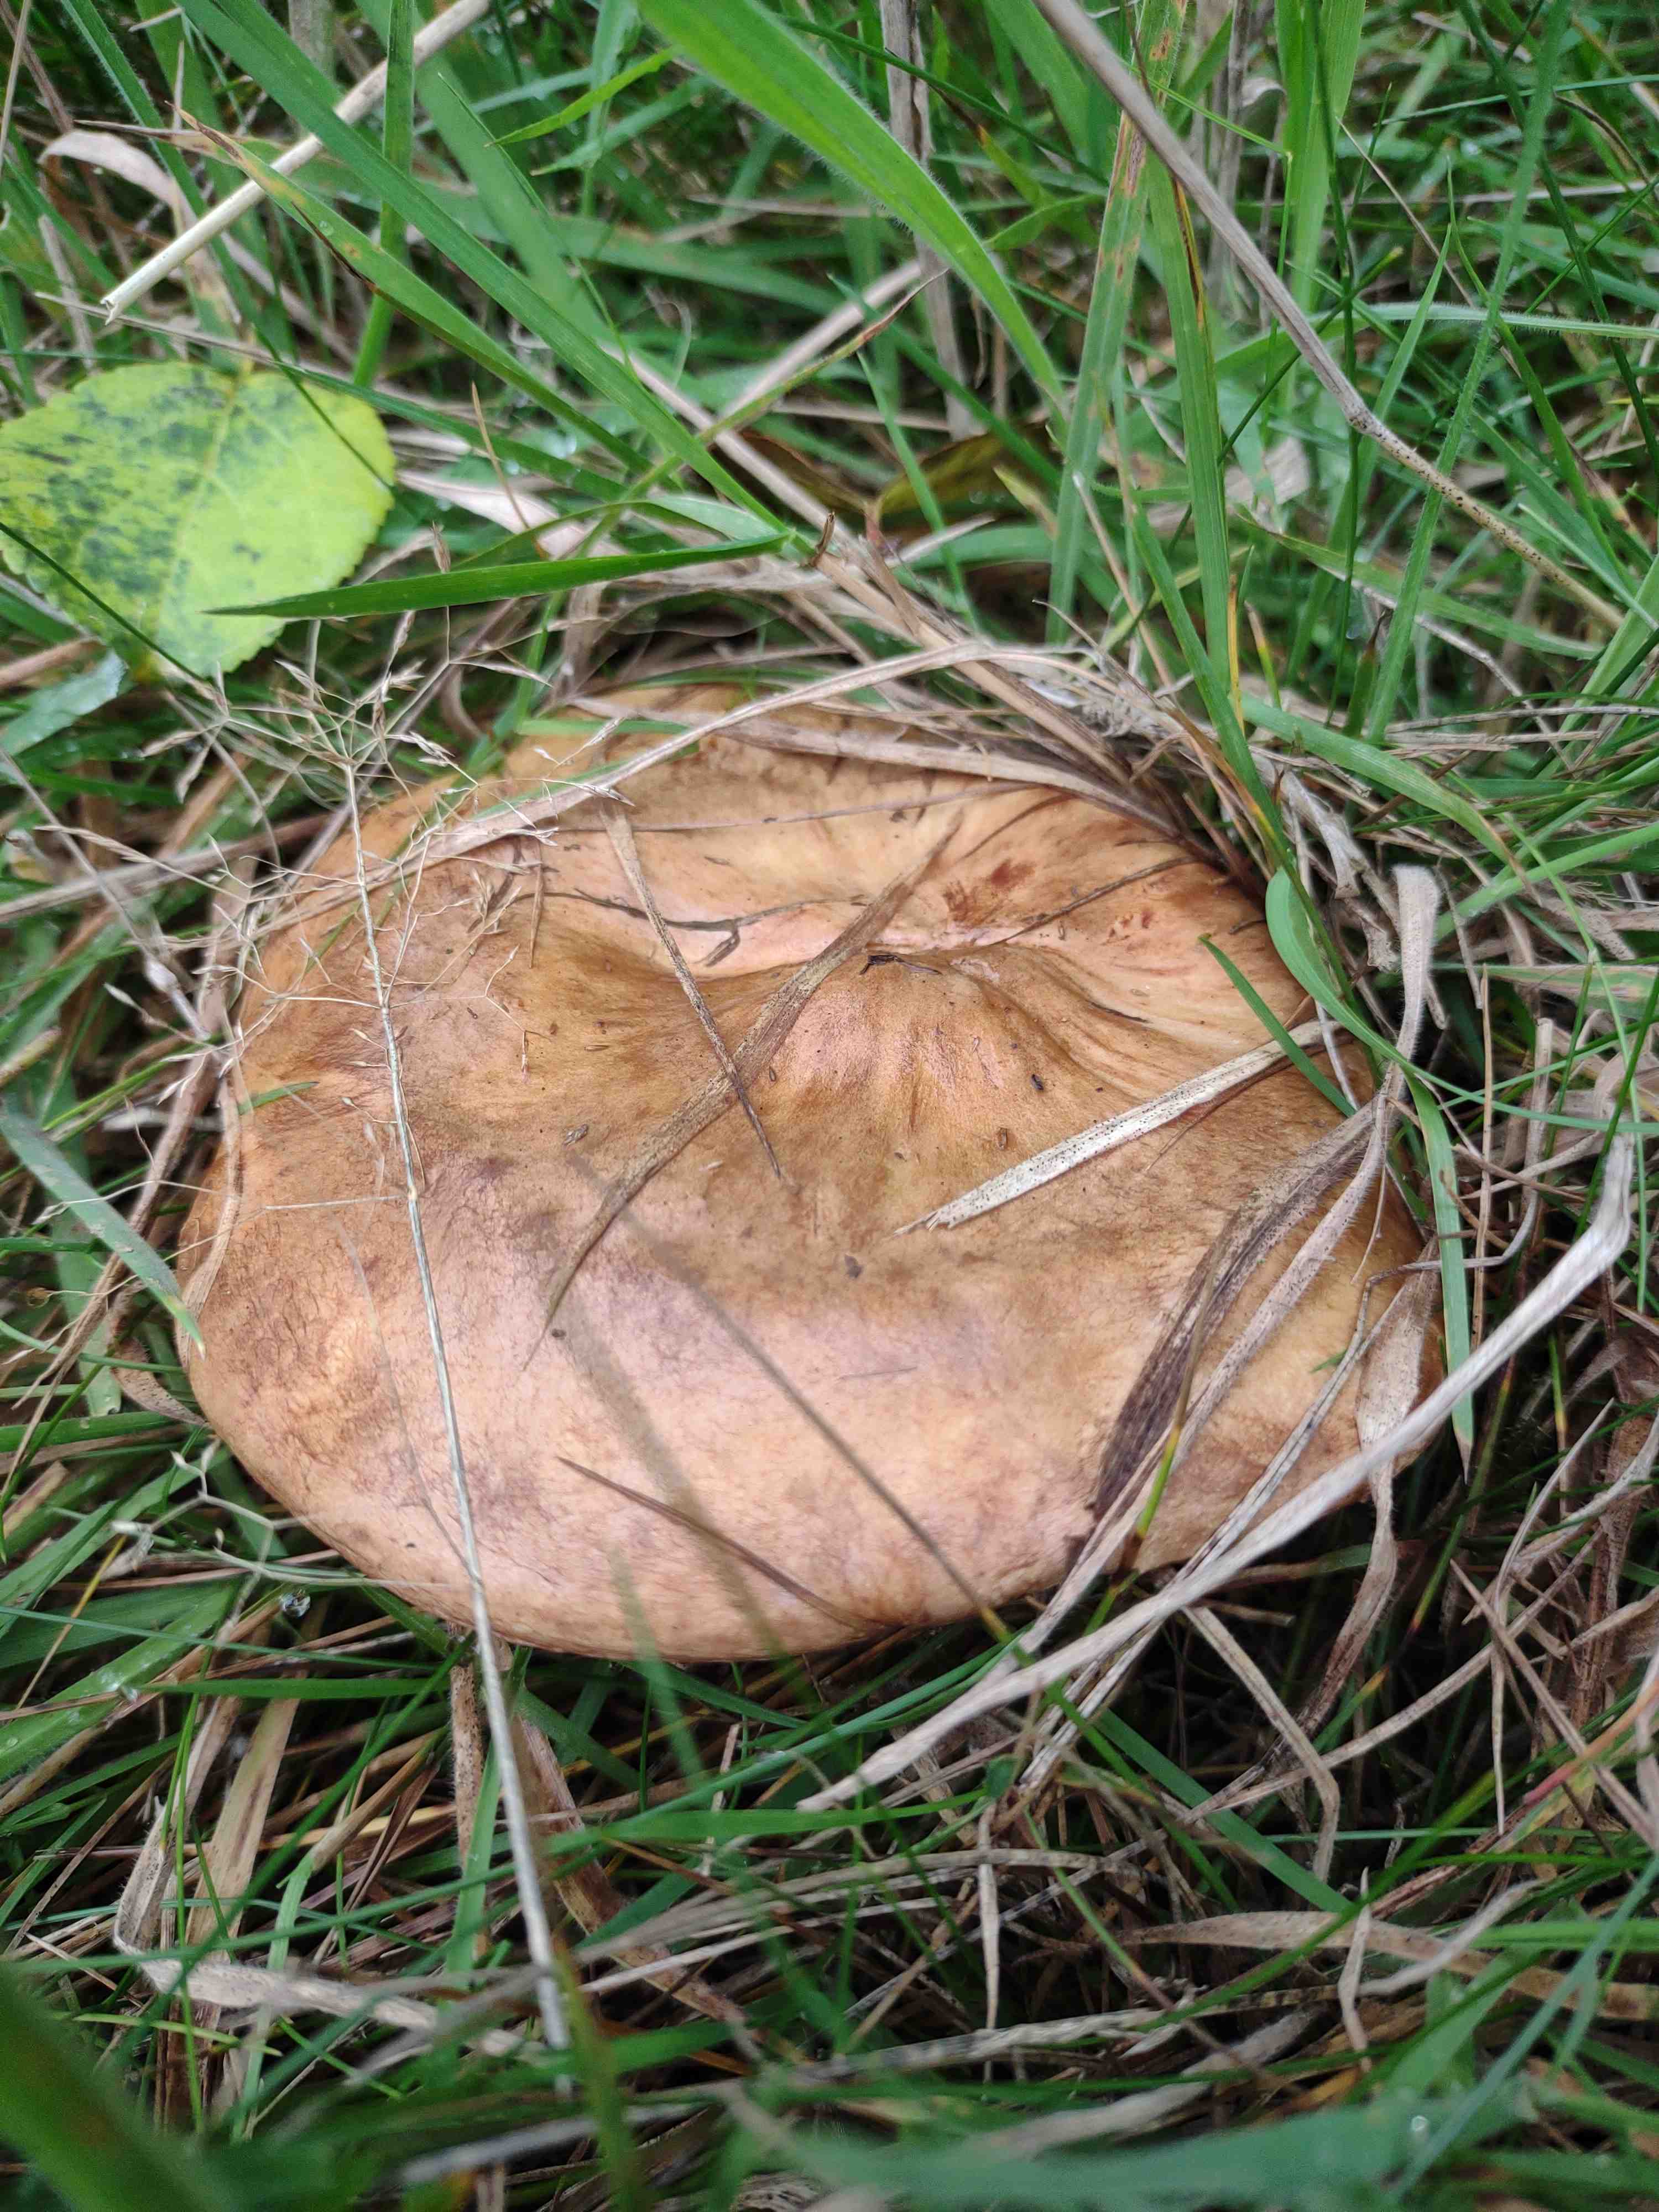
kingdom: Fungi
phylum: Basidiomycota
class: Agaricomycetes
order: Boletales
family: Paxillaceae
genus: Paxillus
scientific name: Paxillus
